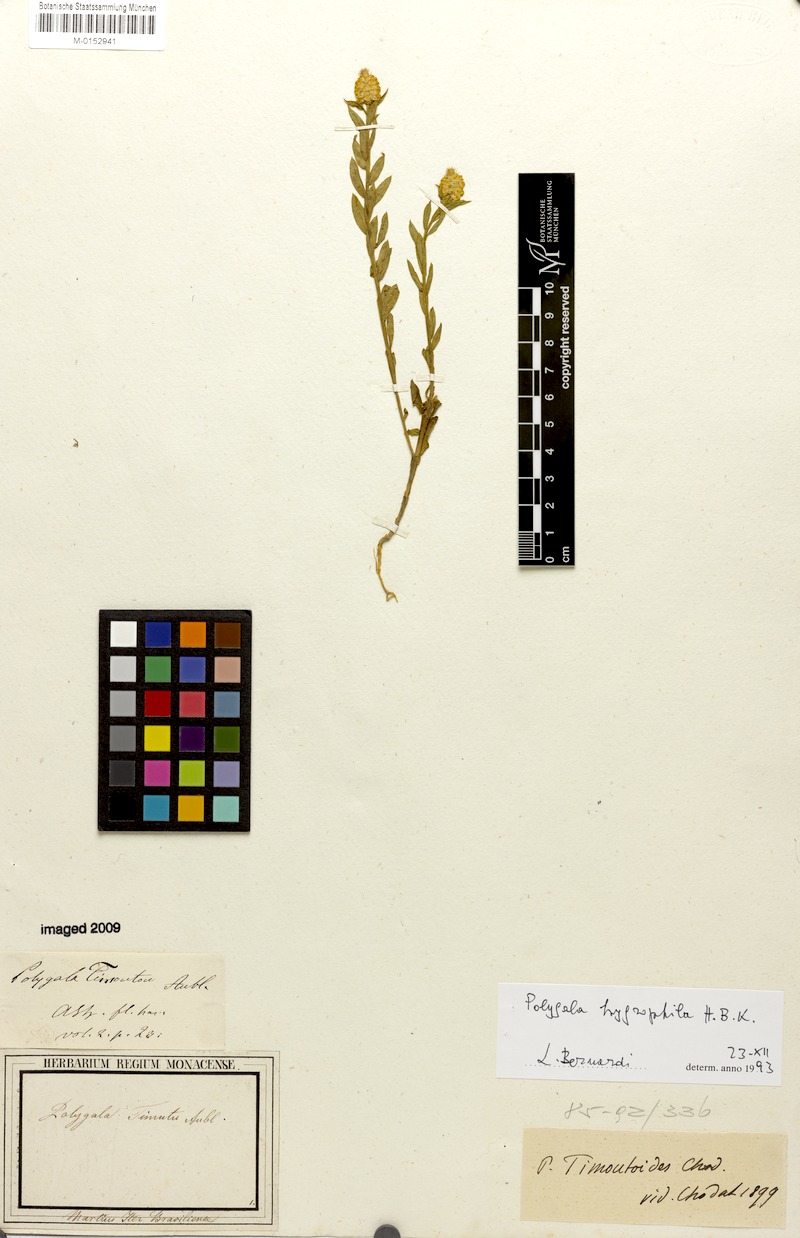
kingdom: Plantae
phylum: Tracheophyta
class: Magnoliopsida
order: Fabales
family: Polygalaceae
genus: Polygala
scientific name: Polygala hygrophila
